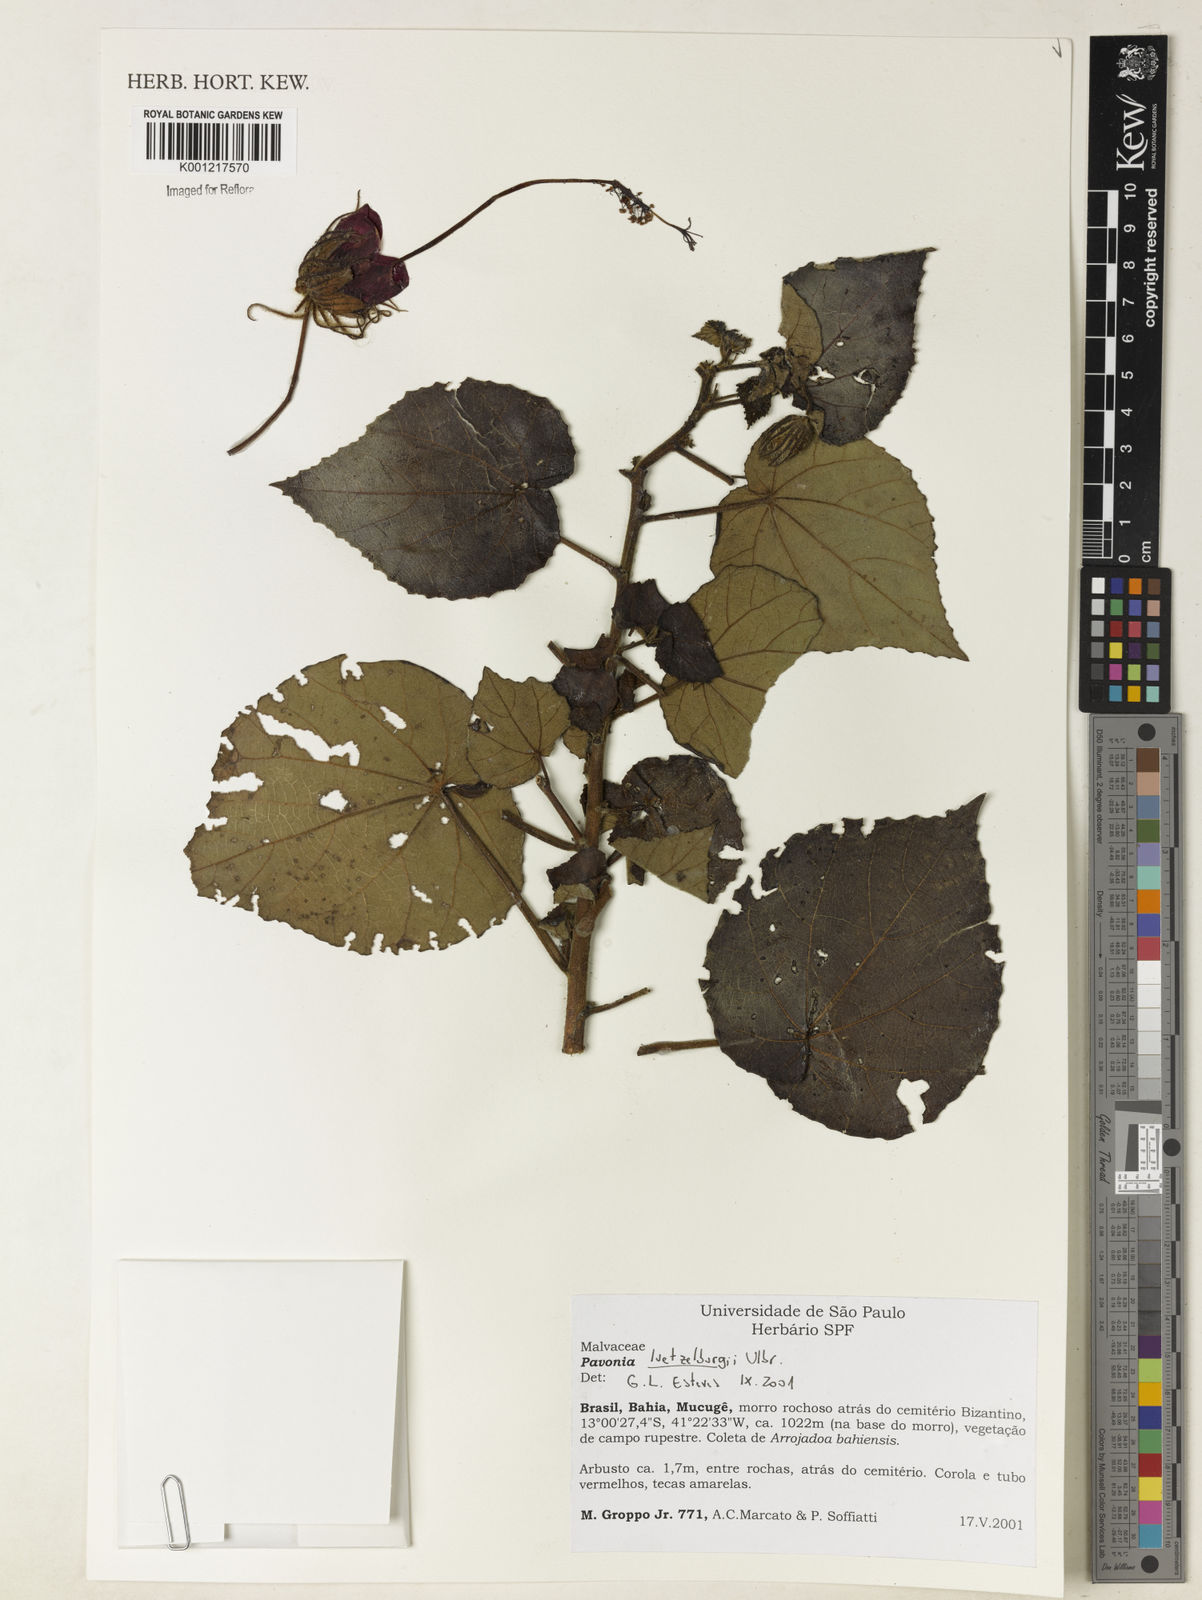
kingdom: Plantae
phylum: Tracheophyta
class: Magnoliopsida
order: Malvales
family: Malvaceae
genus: Pavonia
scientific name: Pavonia luetzelburgii
